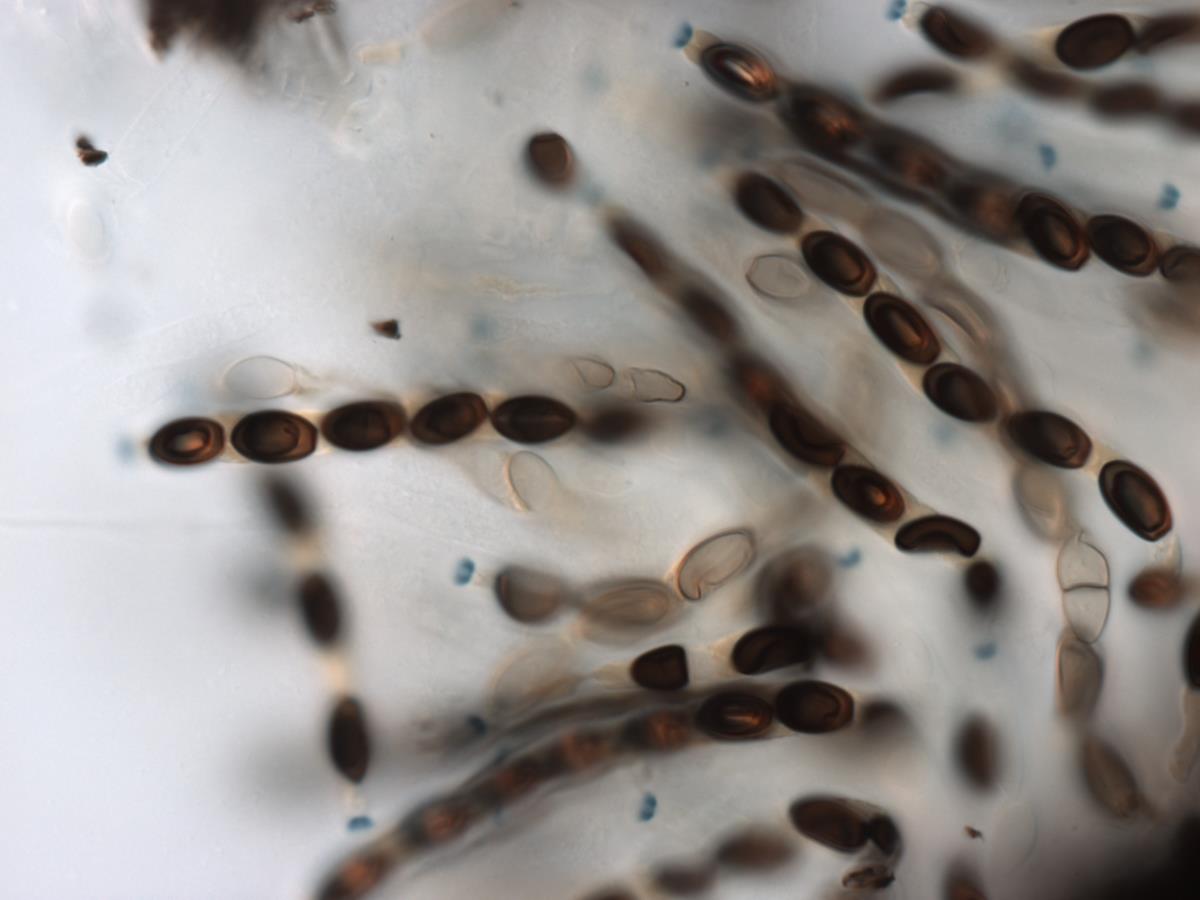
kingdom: Fungi
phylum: Ascomycota
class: Sordariomycetes
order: Xylariales
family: Graphostromataceae
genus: Biscogniauxia
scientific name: Biscogniauxia uniapiculata
